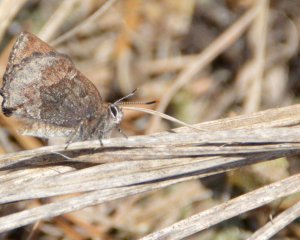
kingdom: Animalia
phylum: Arthropoda
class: Insecta
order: Lepidoptera
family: Lycaenidae
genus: Callophrys
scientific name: Callophrys polios
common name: Hoary Elfin
